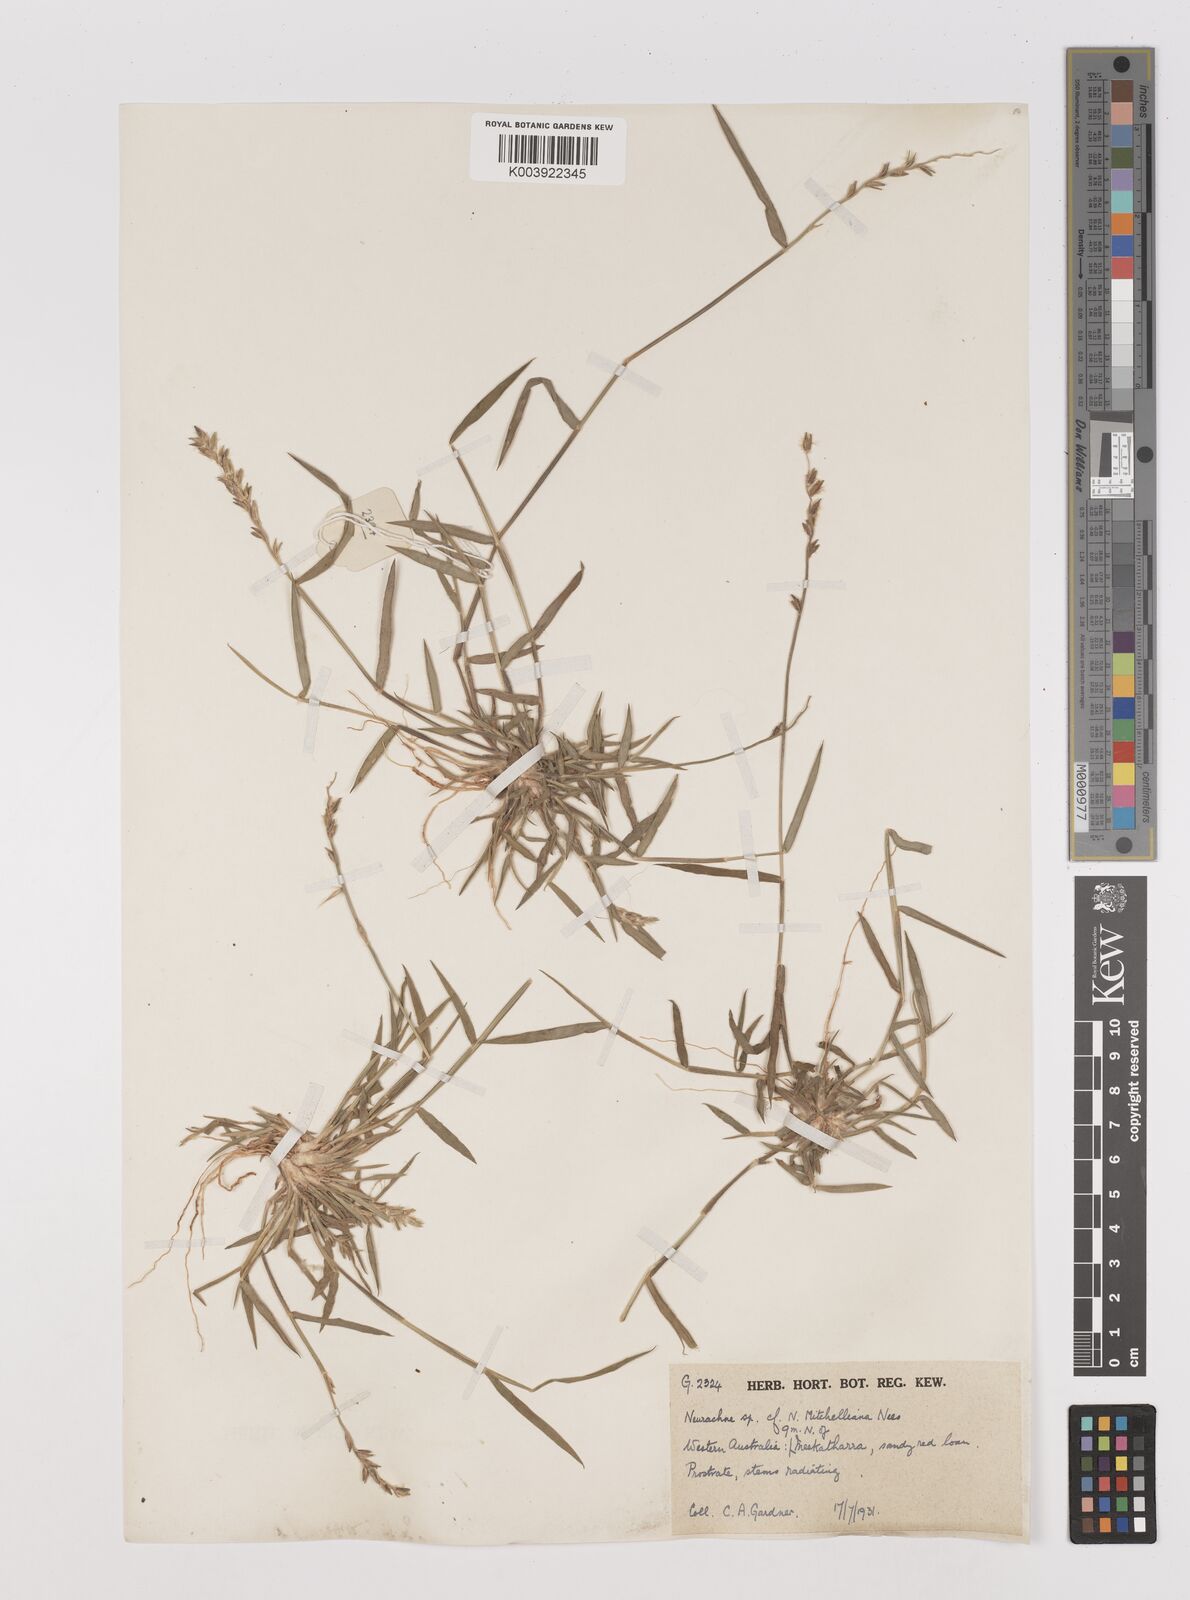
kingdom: Plantae
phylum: Tracheophyta
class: Liliopsida
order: Poales
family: Poaceae
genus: Thyridolepis
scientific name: Thyridolepis mitchelliana
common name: Rock tassel grass
